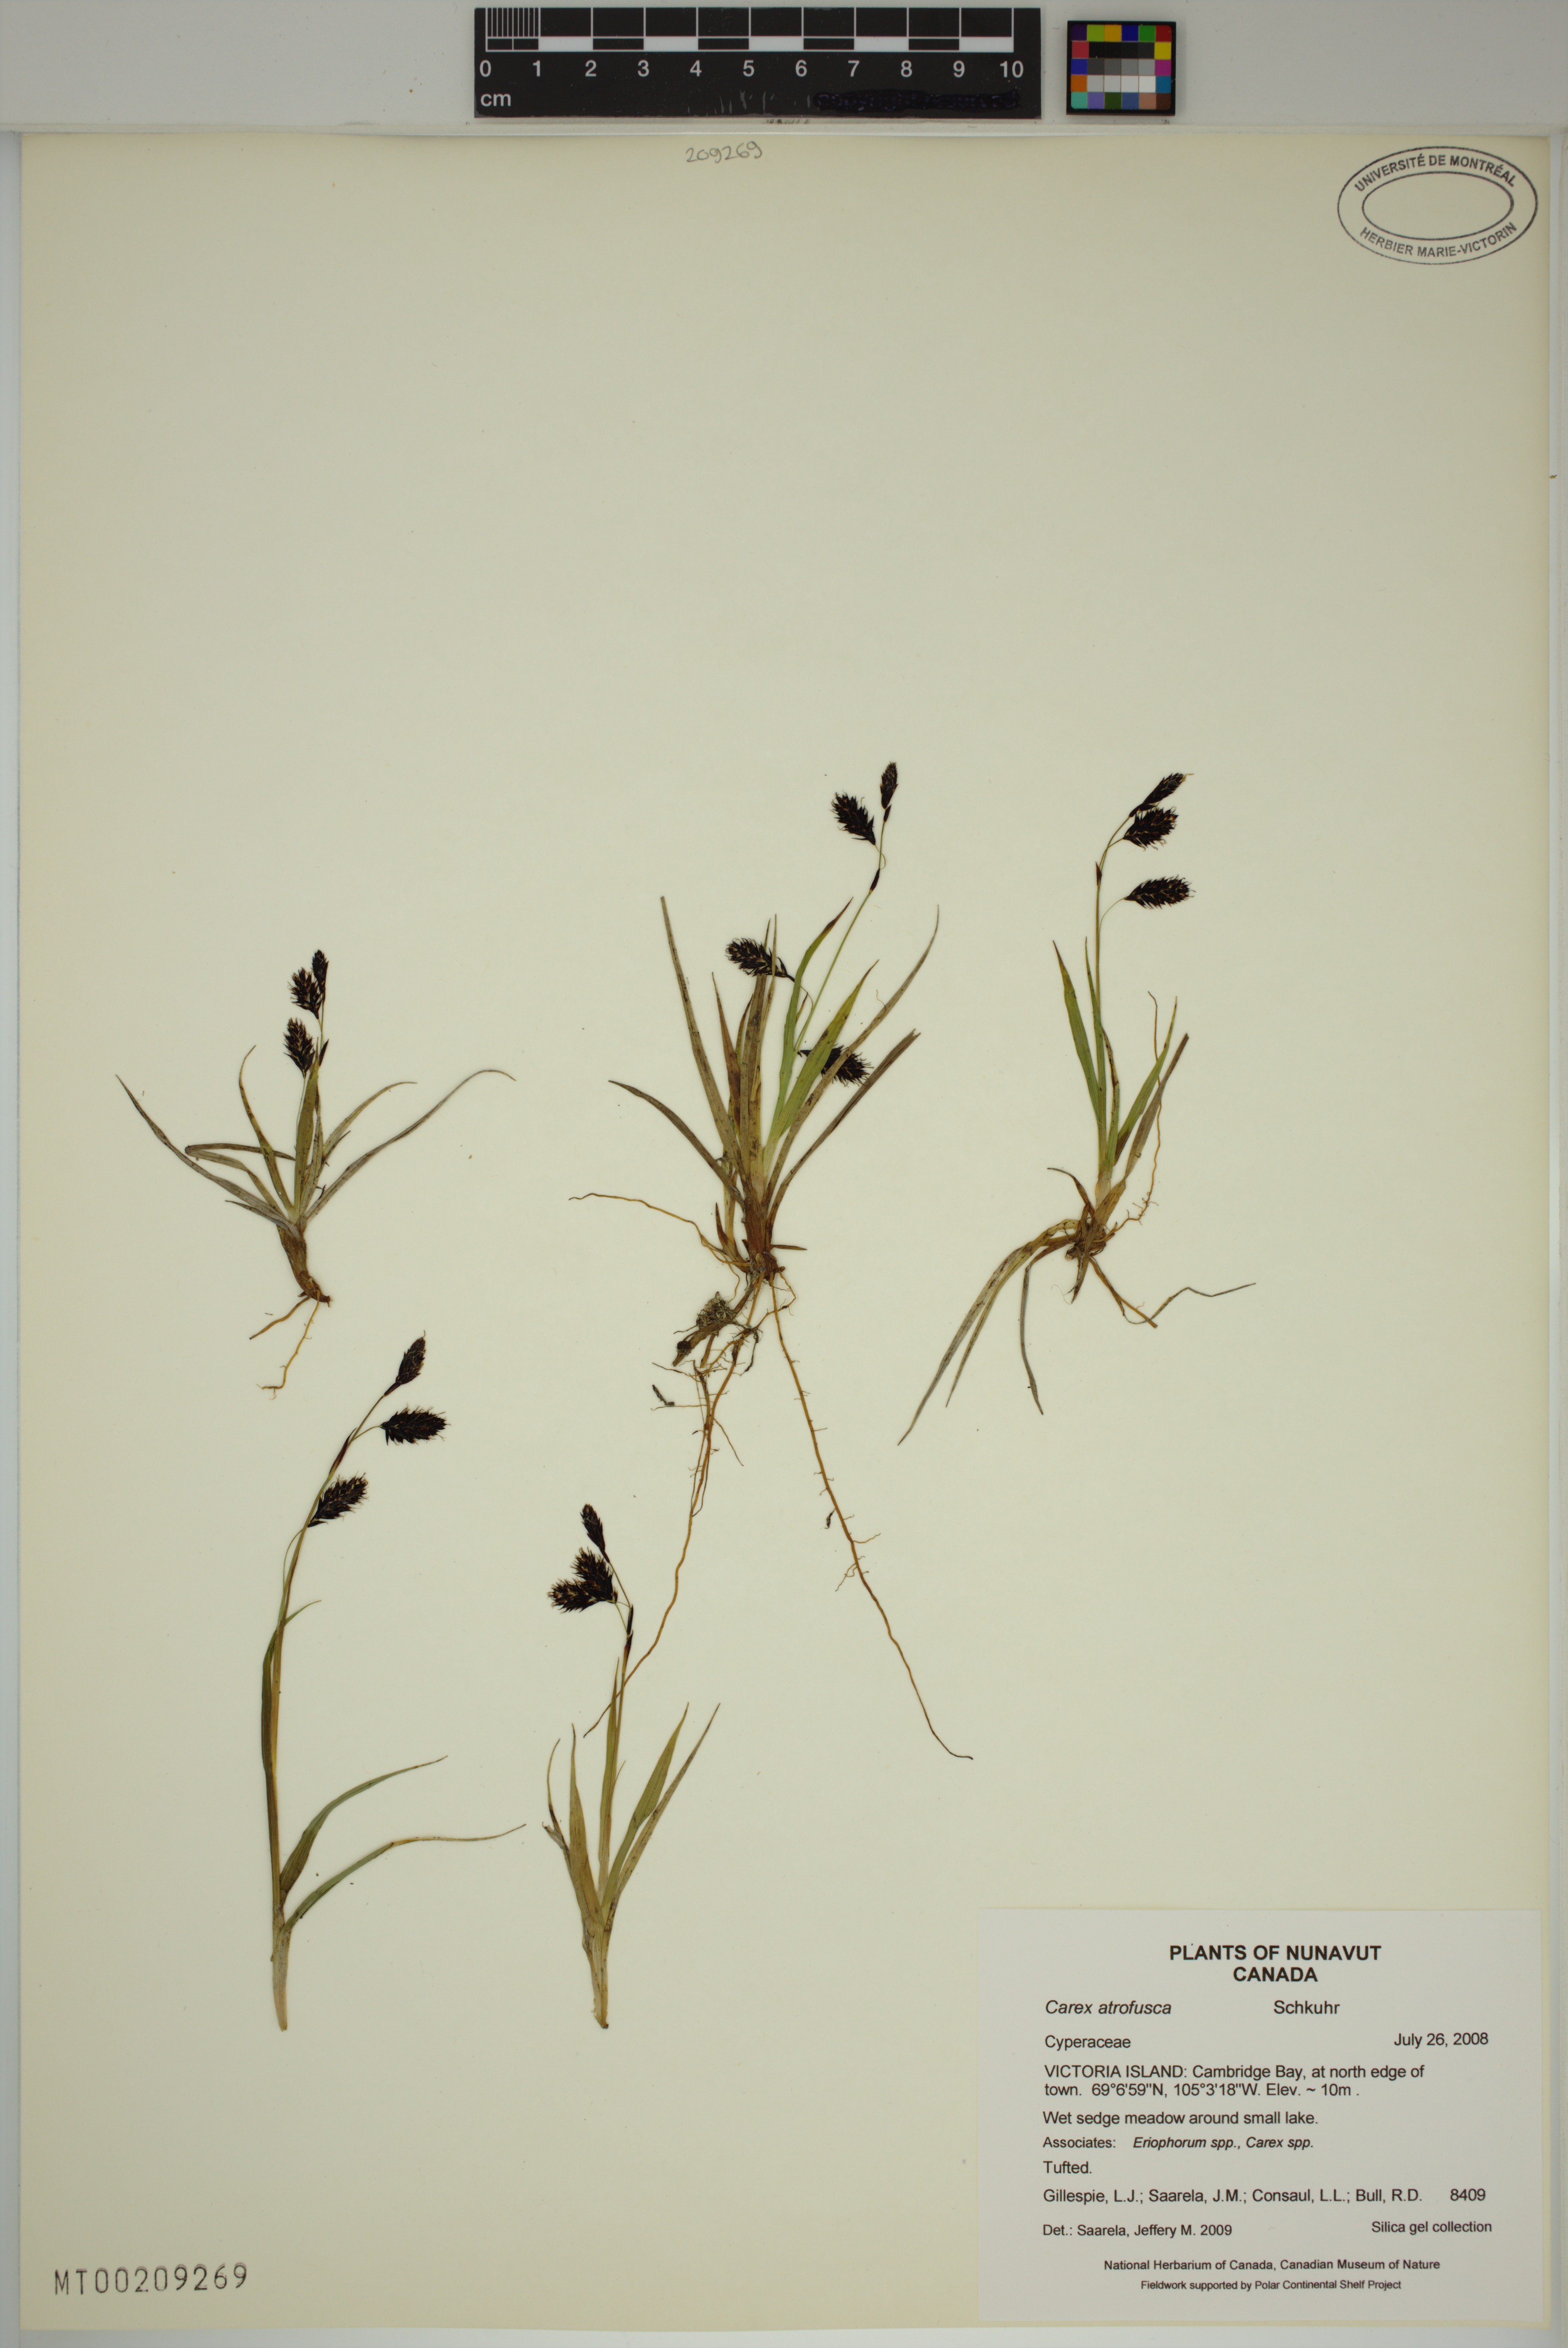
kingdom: Plantae
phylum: Tracheophyta
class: Liliopsida
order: Poales
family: Cyperaceae
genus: Carex
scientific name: Carex atrofusca
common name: Scorched alpine-sedge
